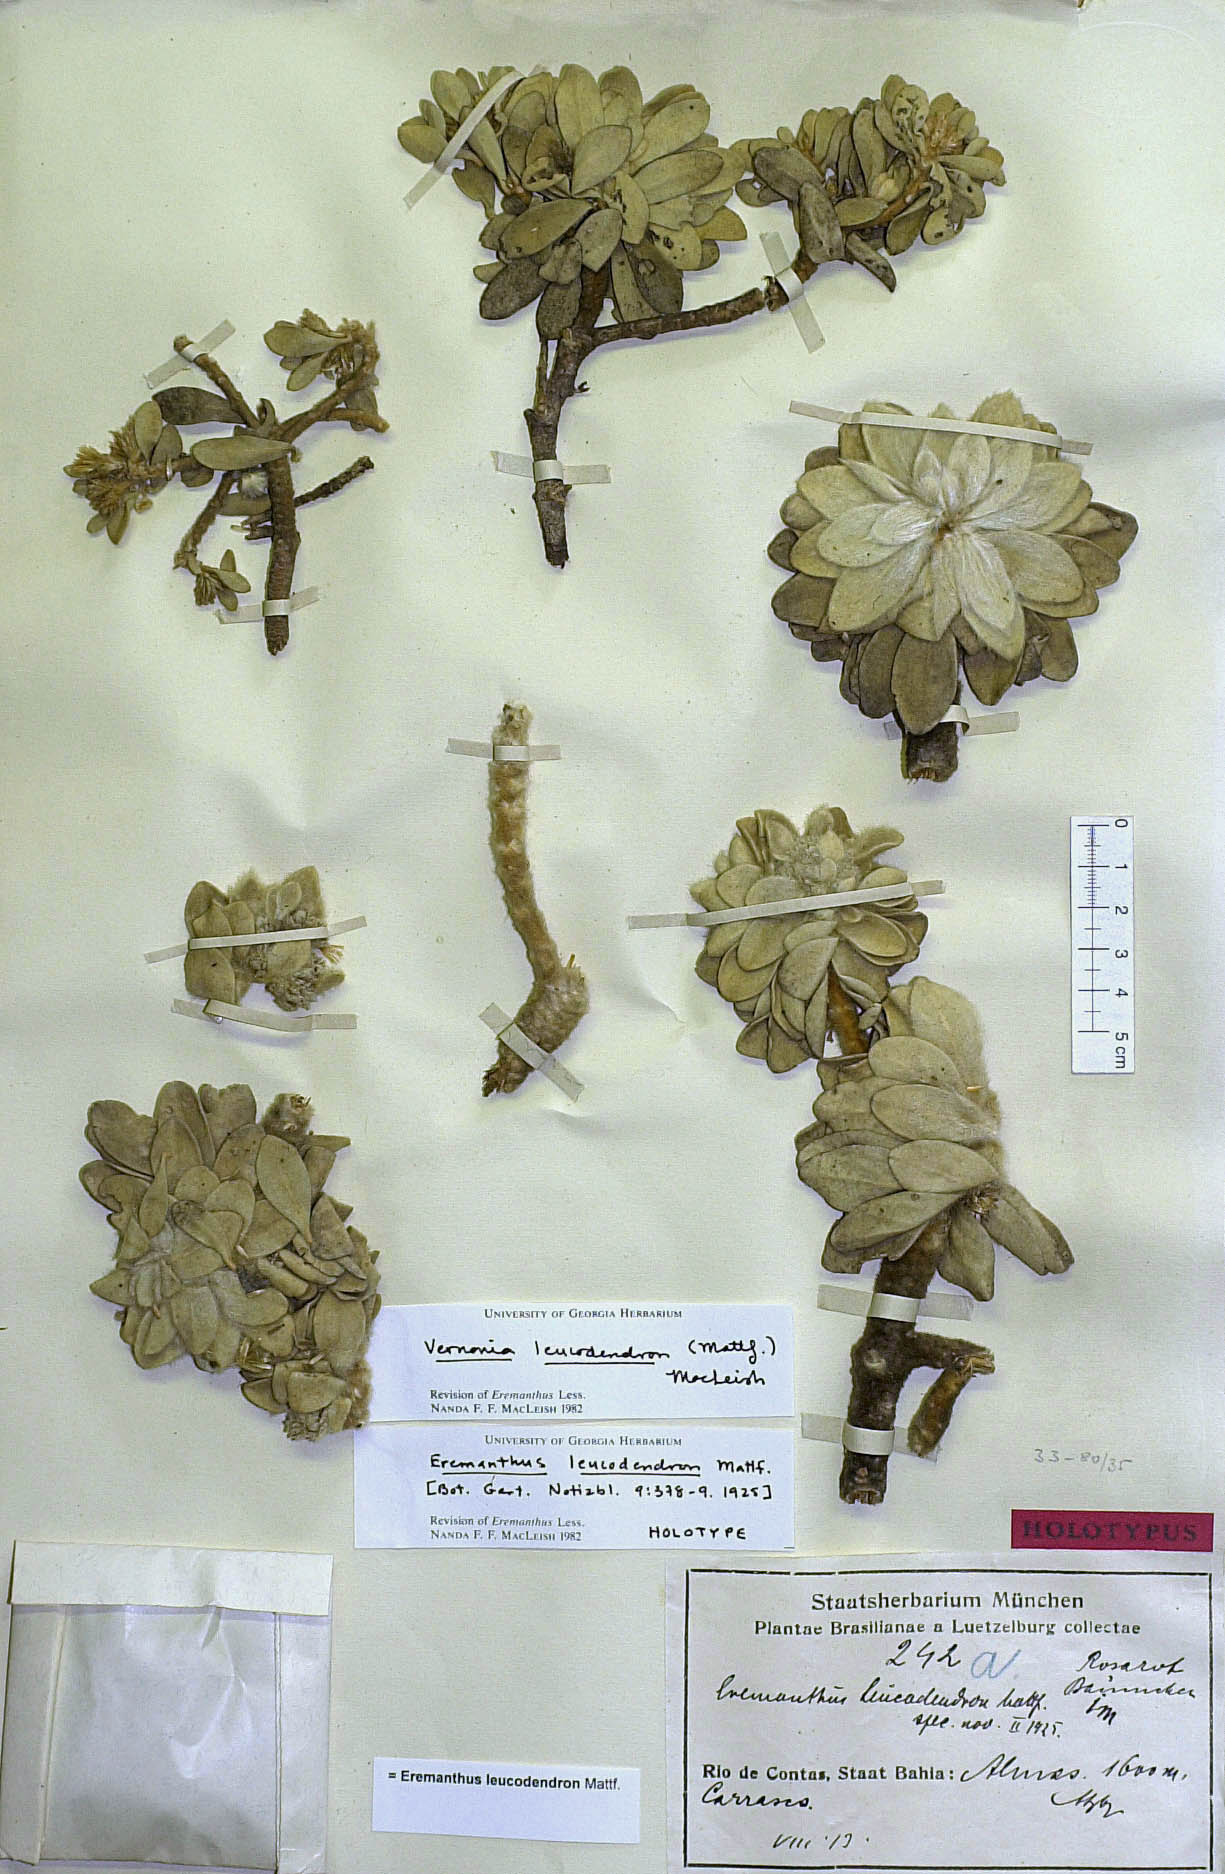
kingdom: Plantae
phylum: Tracheophyta
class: Magnoliopsida
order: Asterales
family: Asteraceae
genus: Lychnophorella
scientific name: Lychnophorella leucodendron
